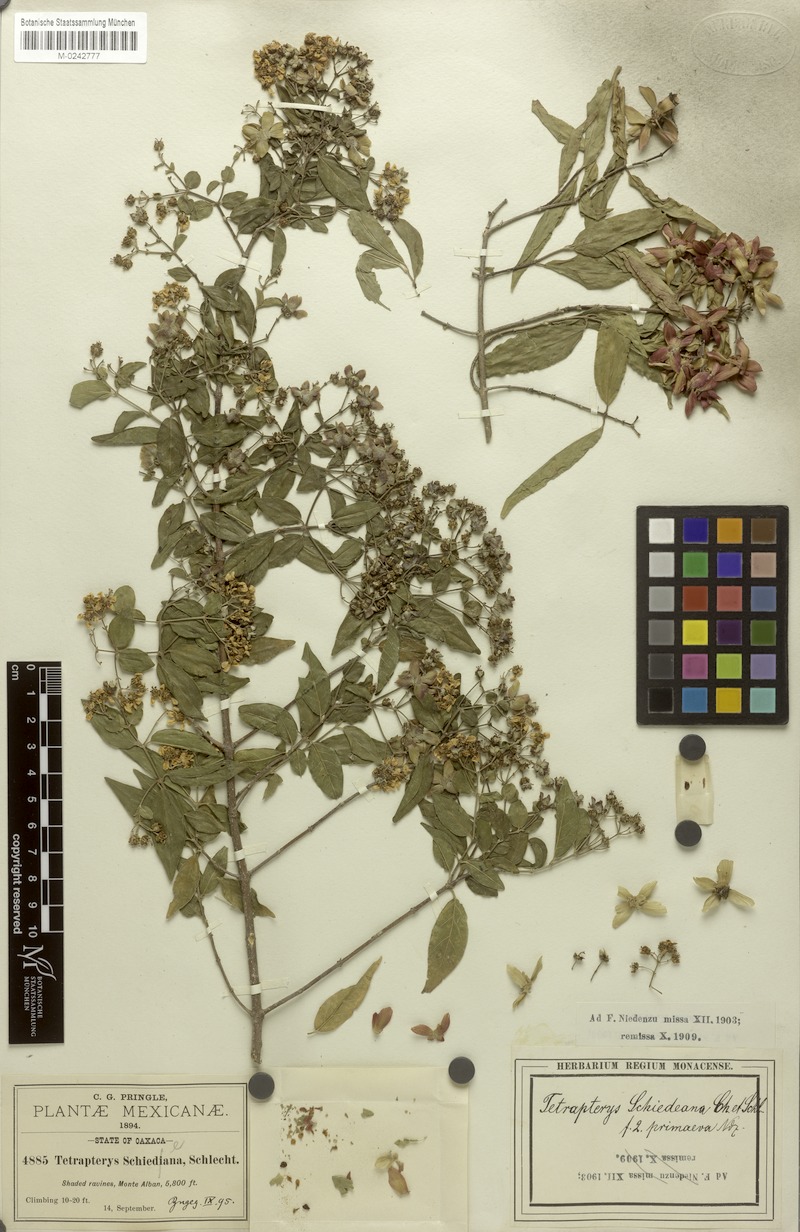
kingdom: Plantae
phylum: Tracheophyta
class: Magnoliopsida
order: Malpighiales
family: Malpighiaceae
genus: Tetrapterys
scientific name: Tetrapterys schiedeana
